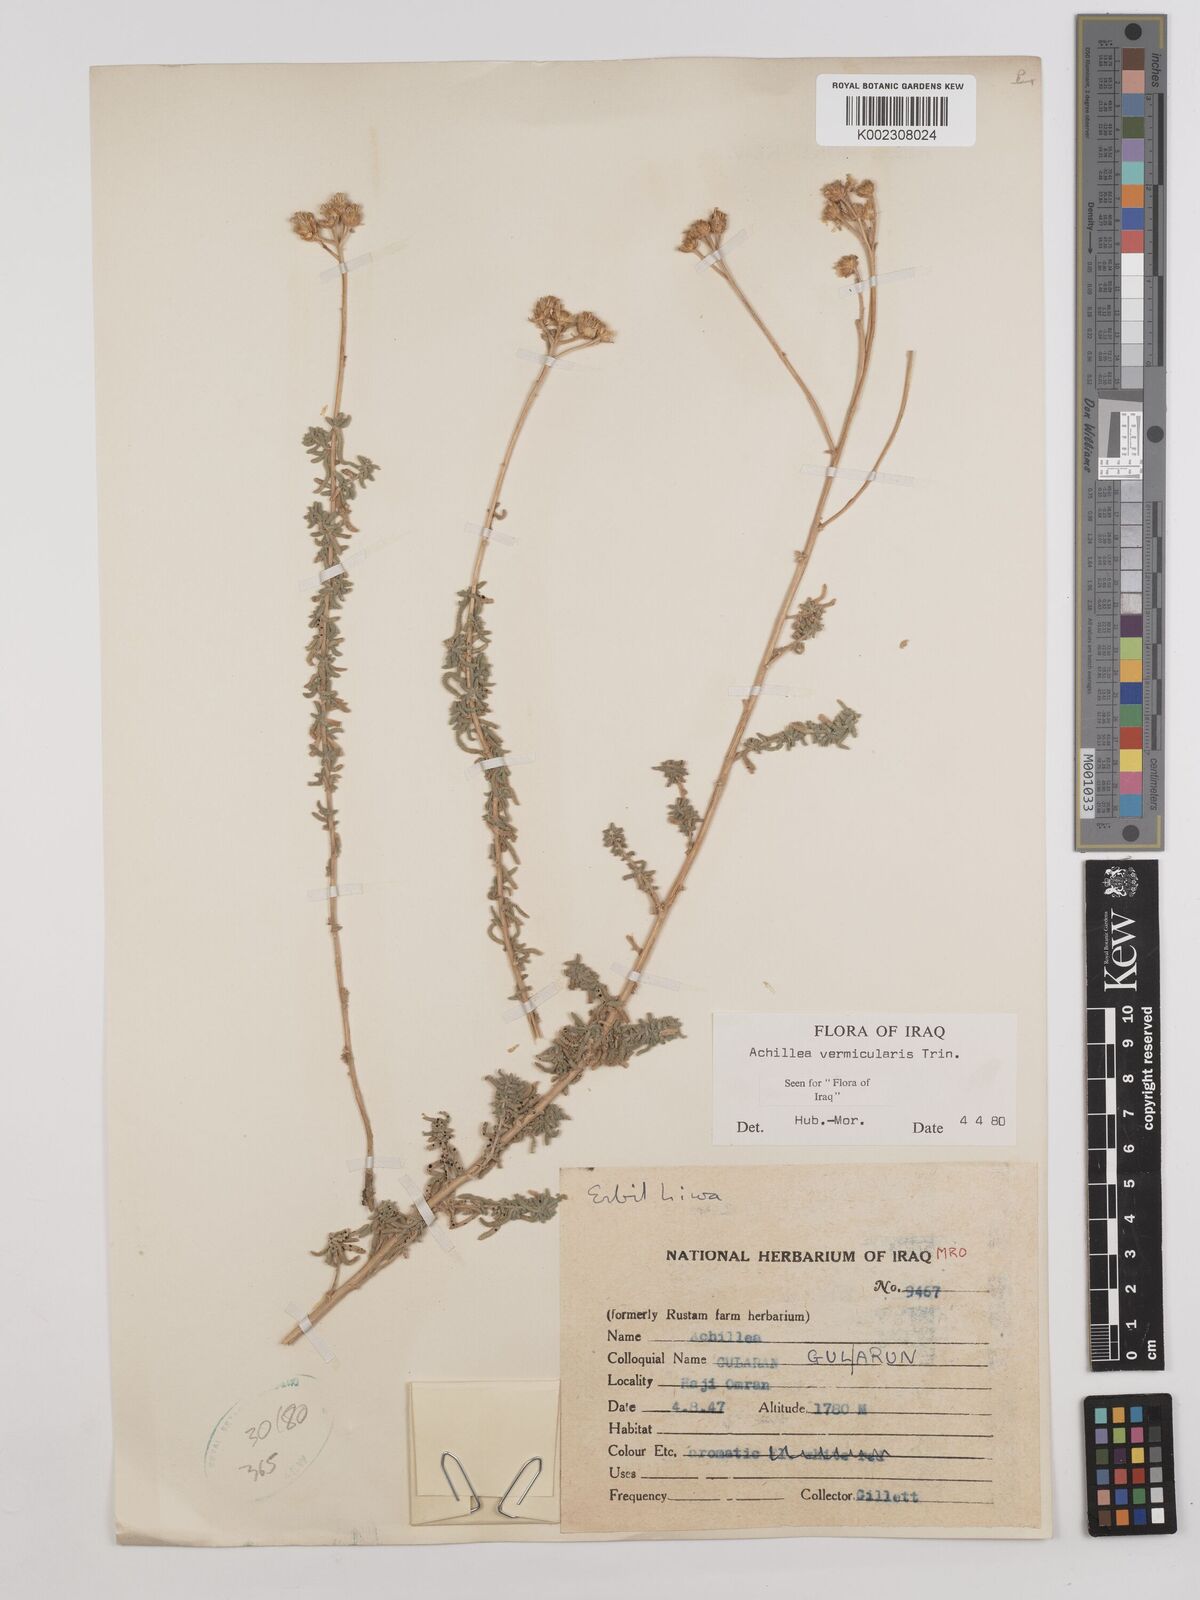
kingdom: Plantae
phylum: Tracheophyta
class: Magnoliopsida
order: Asterales
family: Asteraceae
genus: Achillea
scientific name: Achillea vermicularis
